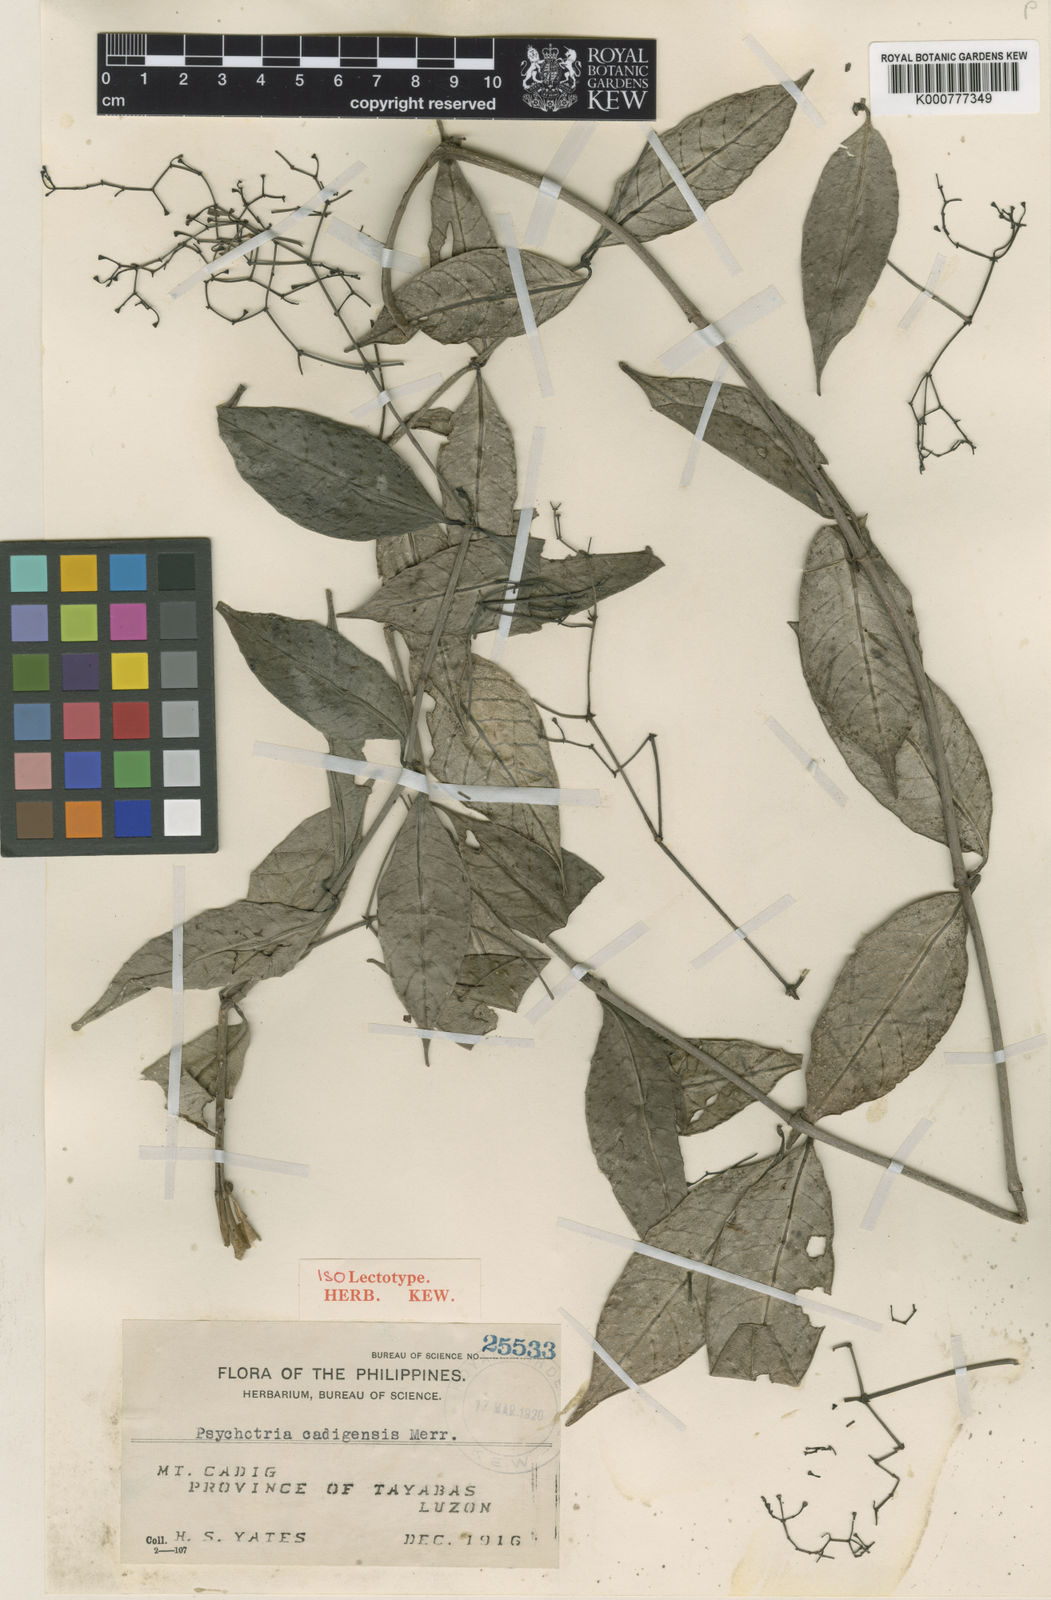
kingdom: Plantae
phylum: Tracheophyta
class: Magnoliopsida
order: Gentianales
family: Rubiaceae
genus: Psychotria
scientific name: Psychotria cadigensis
